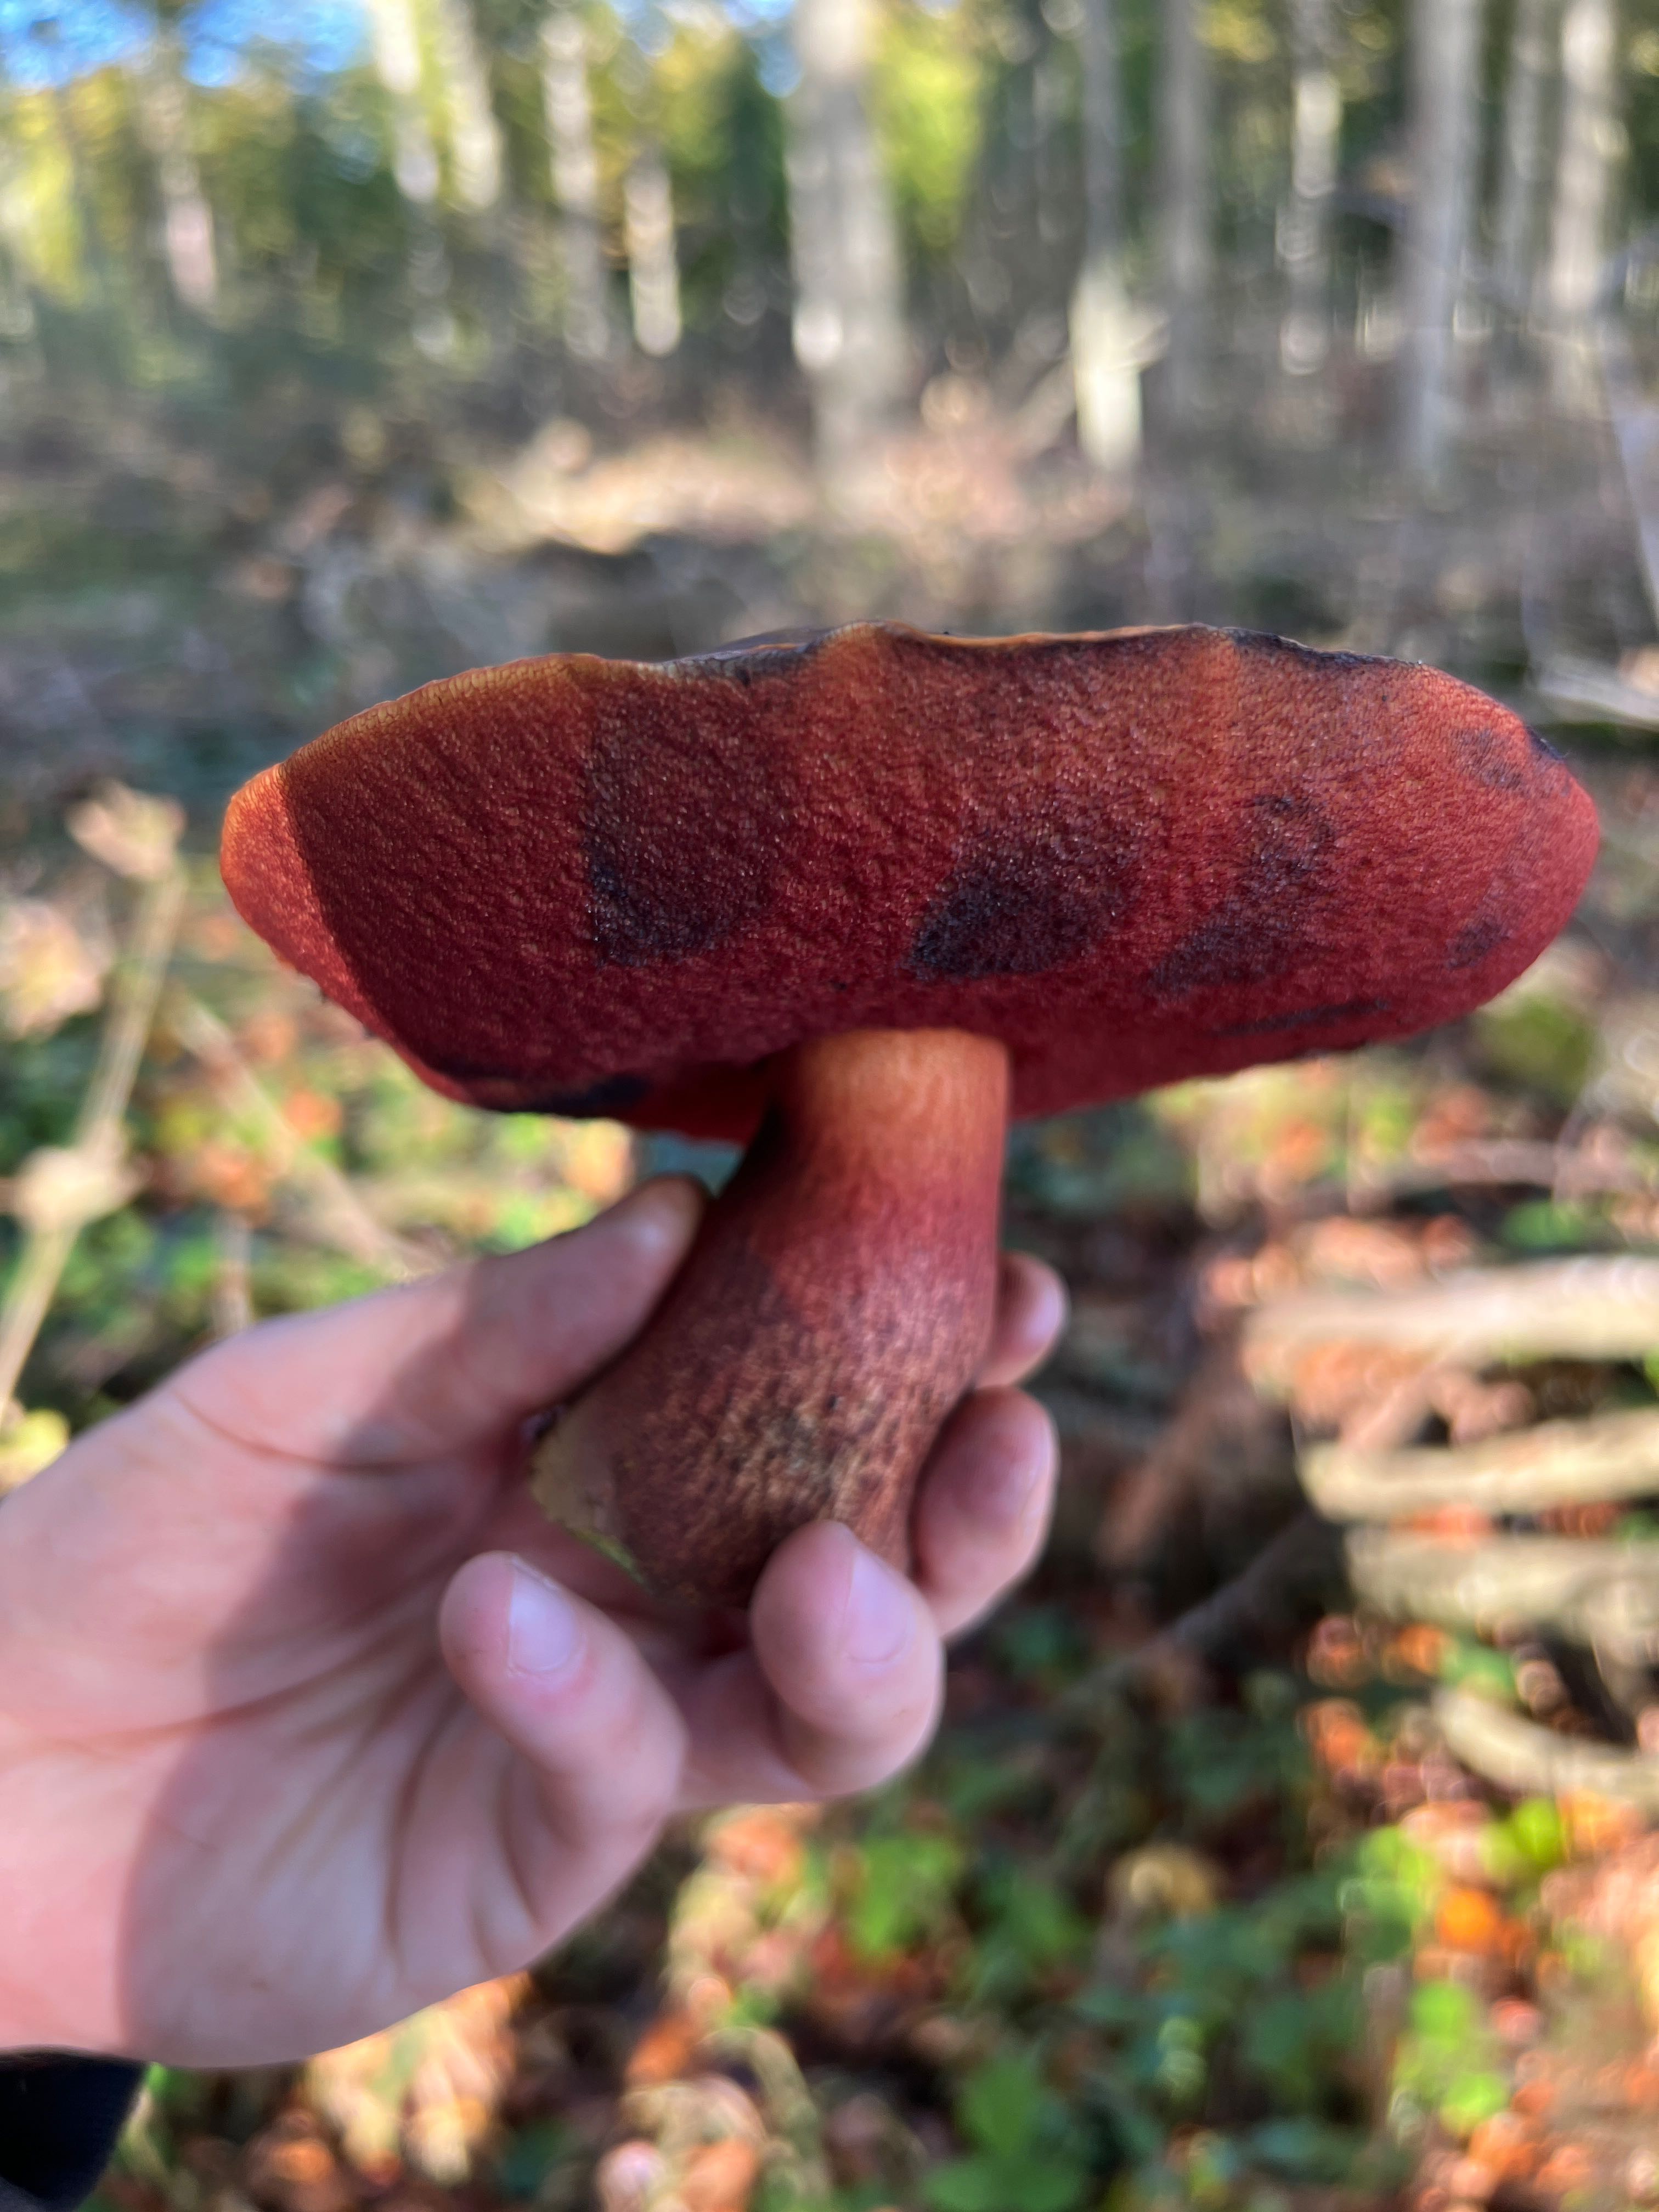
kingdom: Fungi
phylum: Basidiomycota
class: Agaricomycetes
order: Boletales
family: Boletaceae
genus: Neoboletus
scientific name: Neoboletus erythropus
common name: punktstokket indigorørhat
